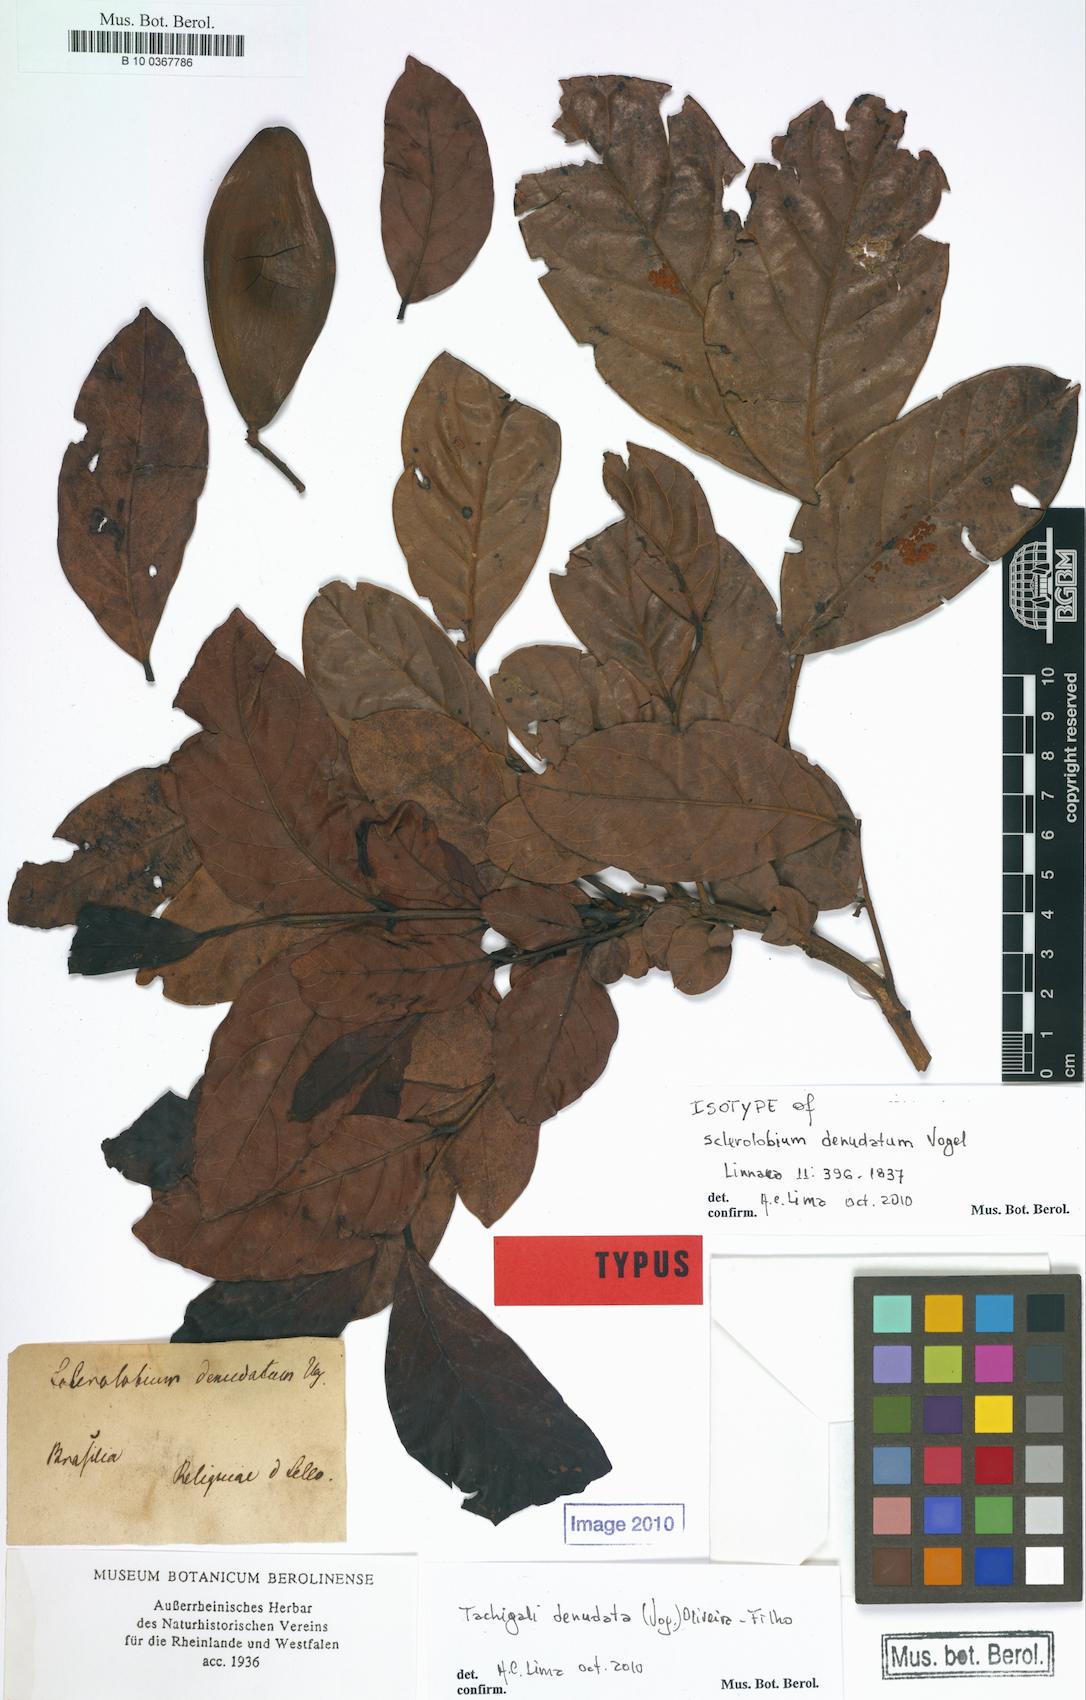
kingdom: Plantae
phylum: Tracheophyta
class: Magnoliopsida
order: Fabales
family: Fabaceae
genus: Tachigali
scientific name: Tachigali denudata
